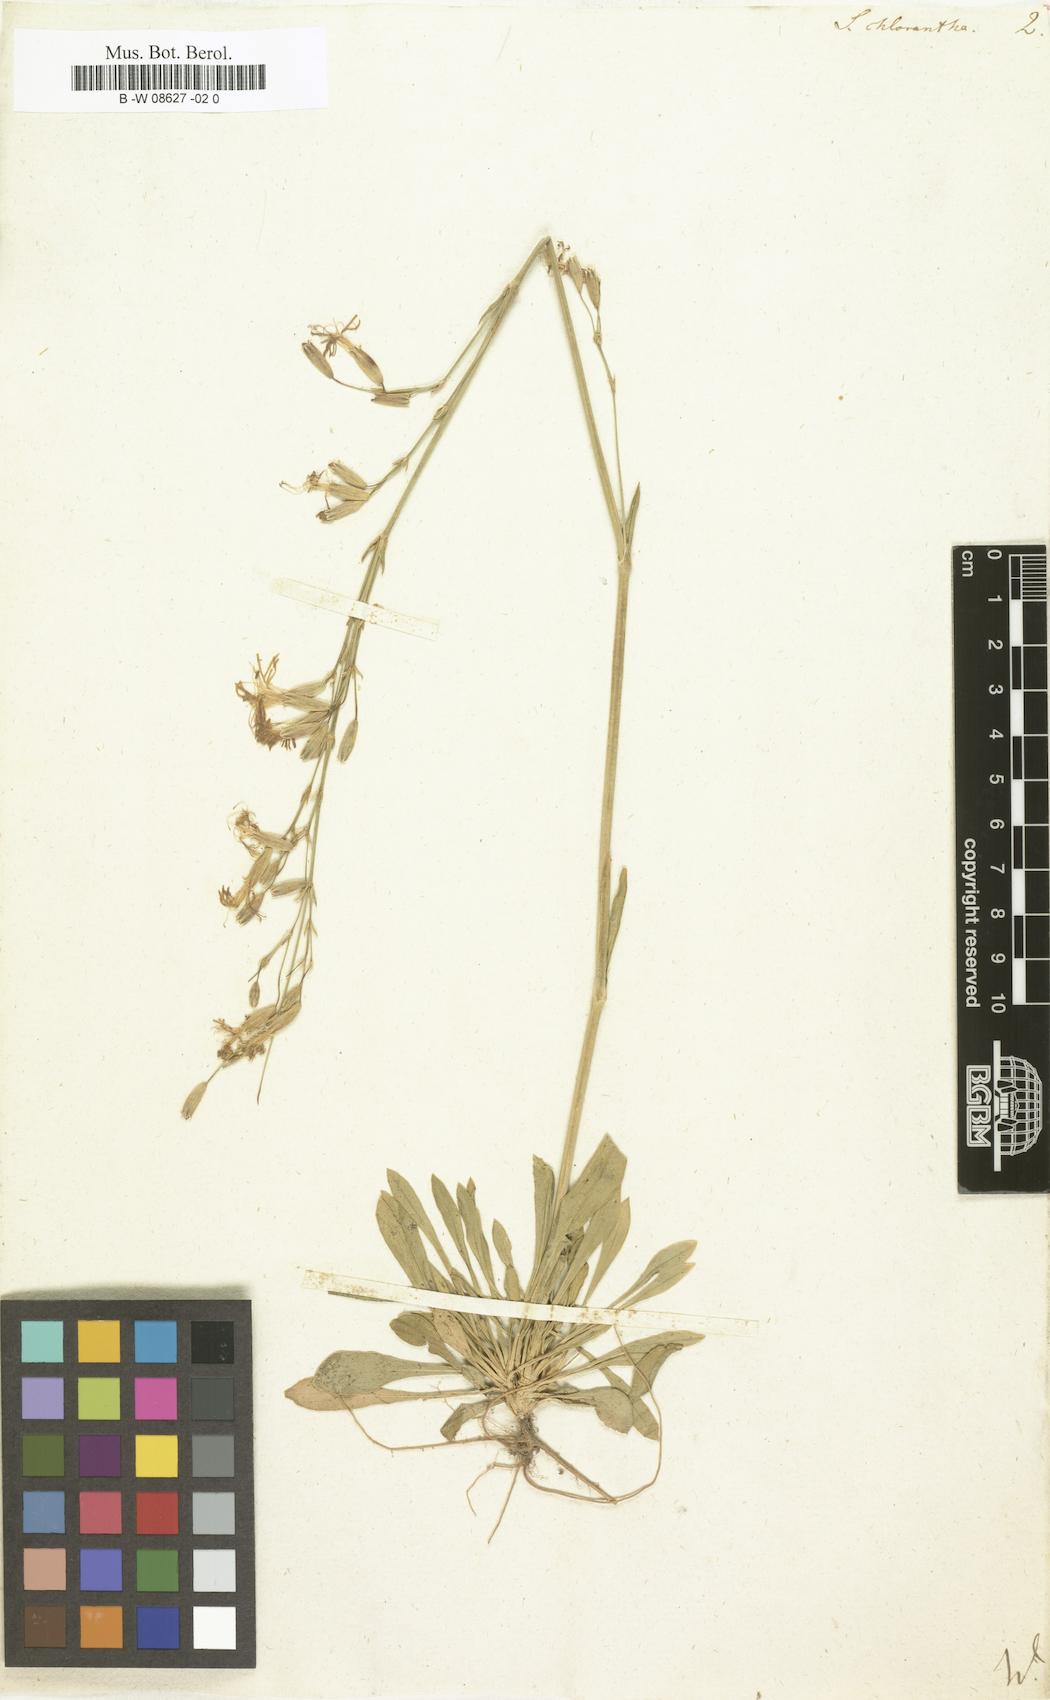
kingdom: Plantae
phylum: Tracheophyta
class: Magnoliopsida
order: Caryophyllales
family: Caryophyllaceae
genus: Silene
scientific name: Silene chlorantha
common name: Yellowgreen catchfly
